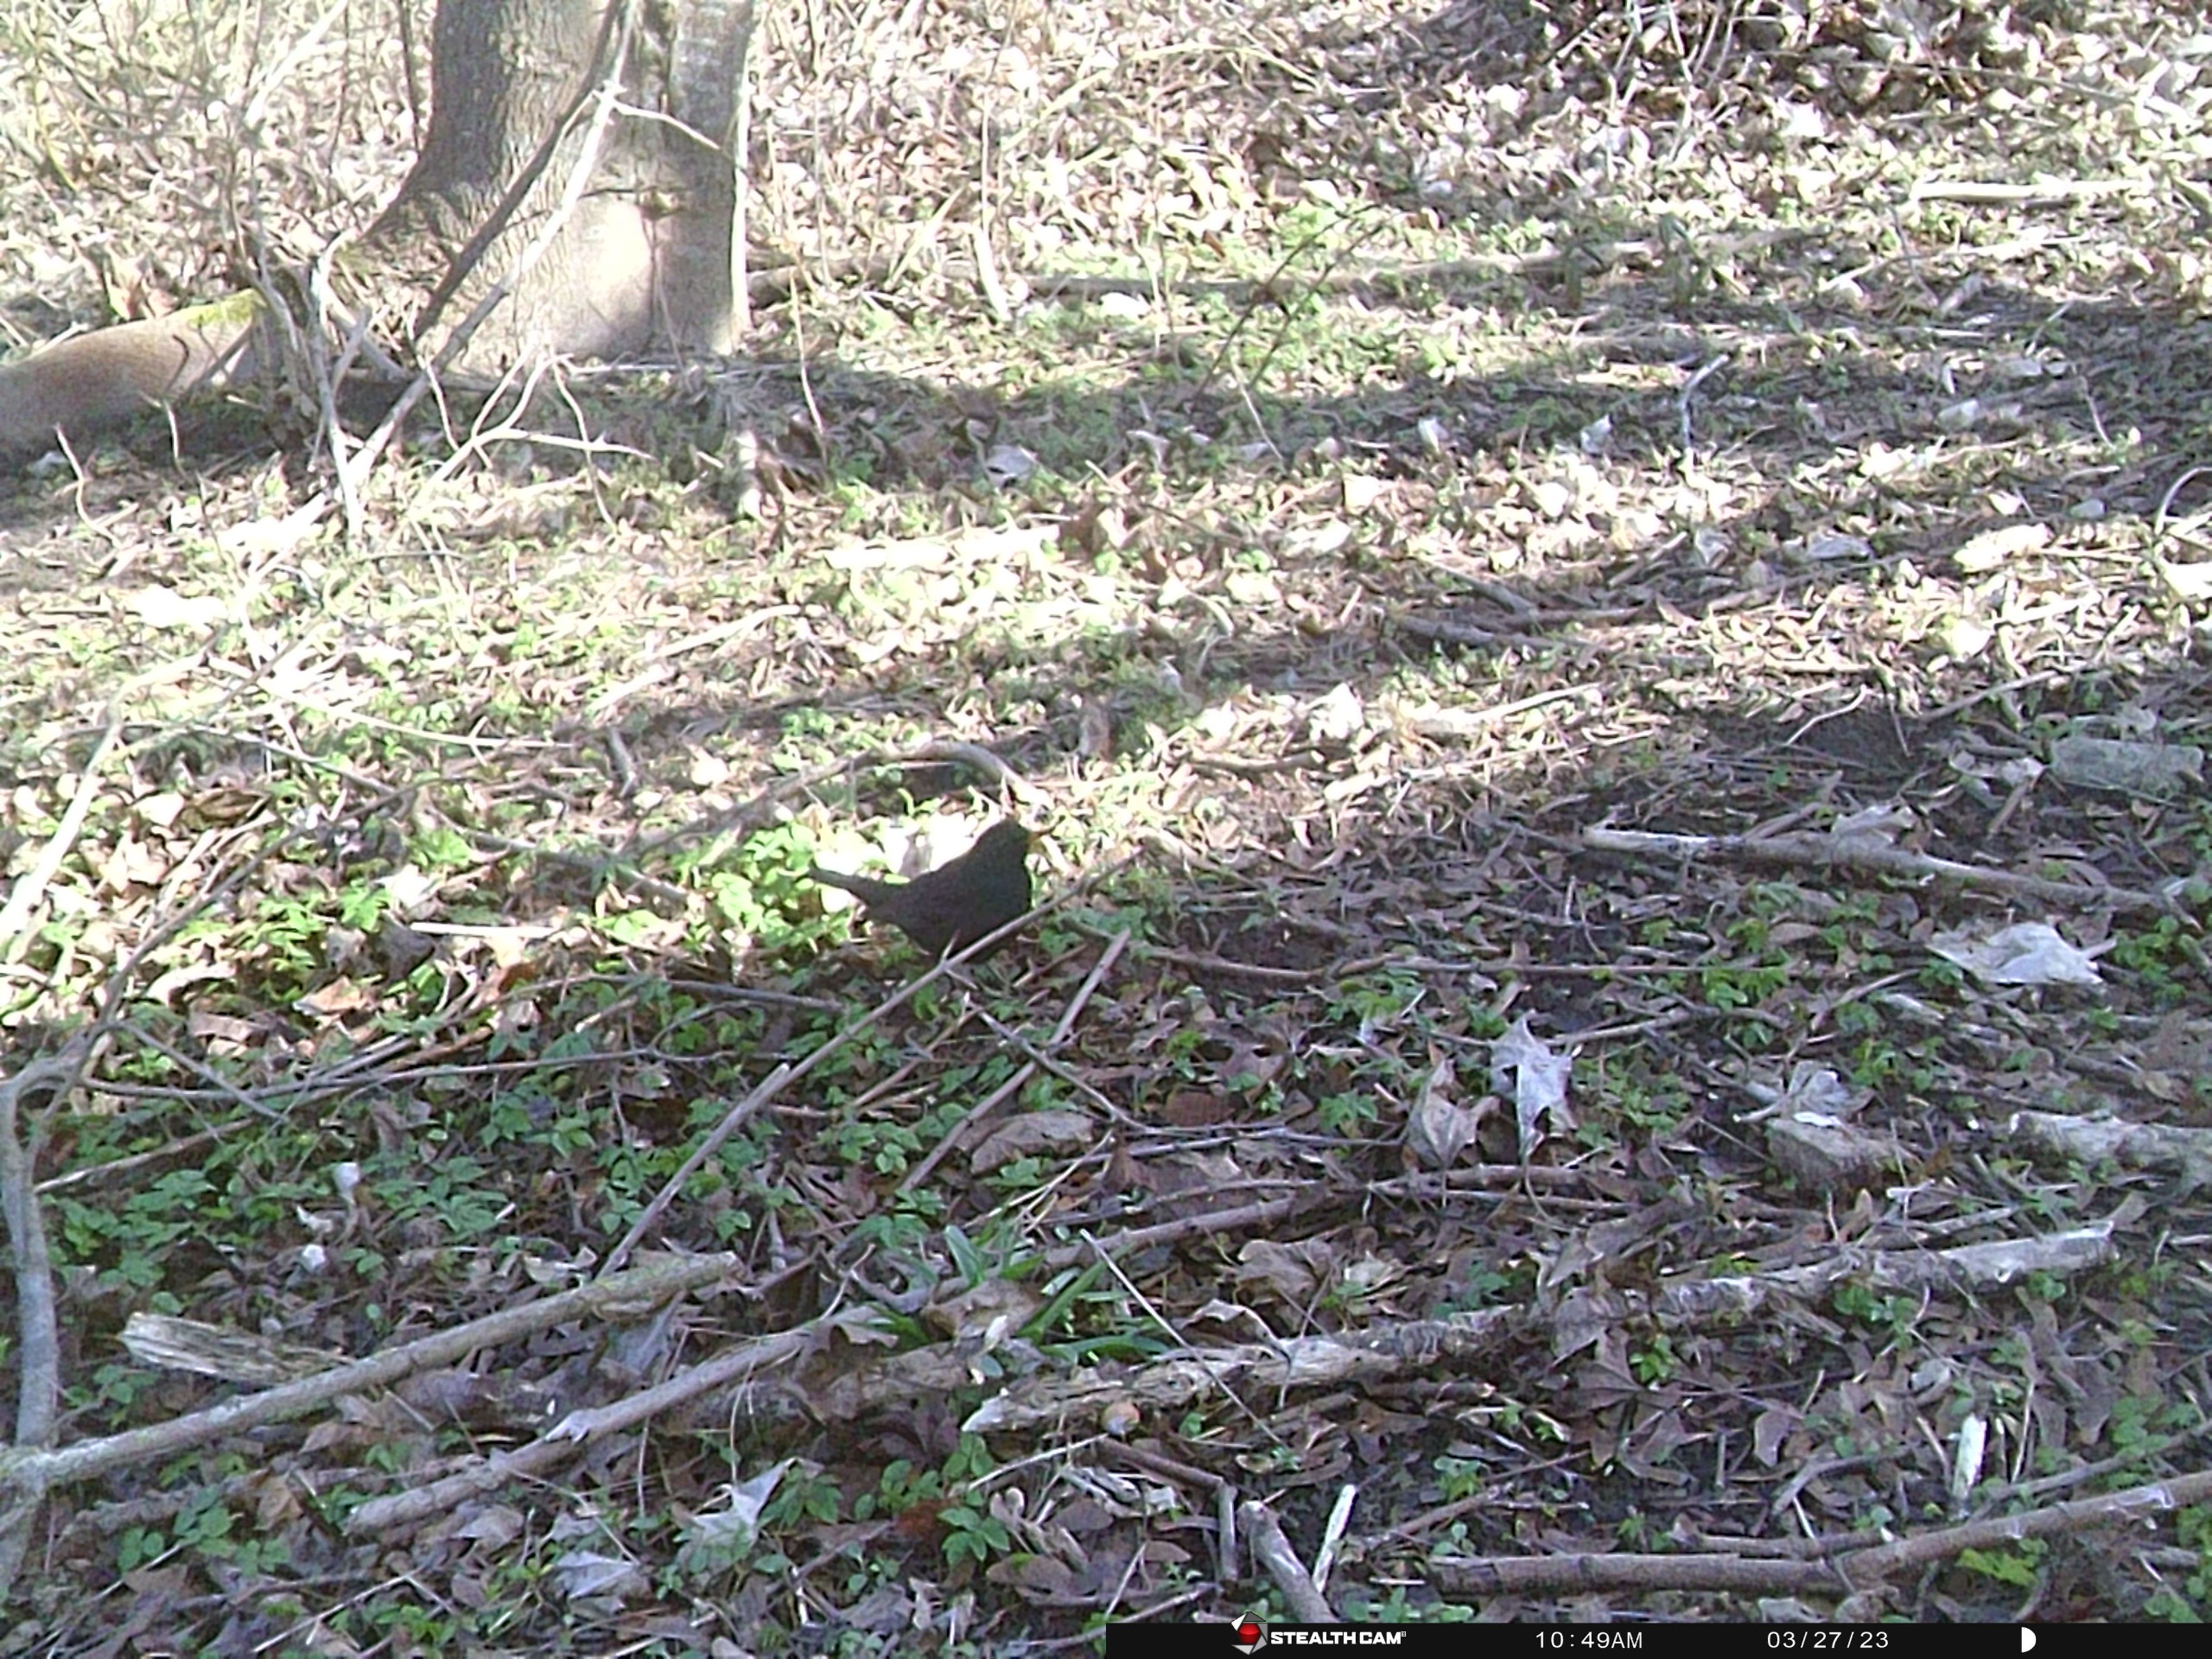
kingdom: Animalia
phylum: Chordata
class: Aves
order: Passeriformes
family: Turdidae
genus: Turdus
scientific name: Turdus merula
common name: Solsort
